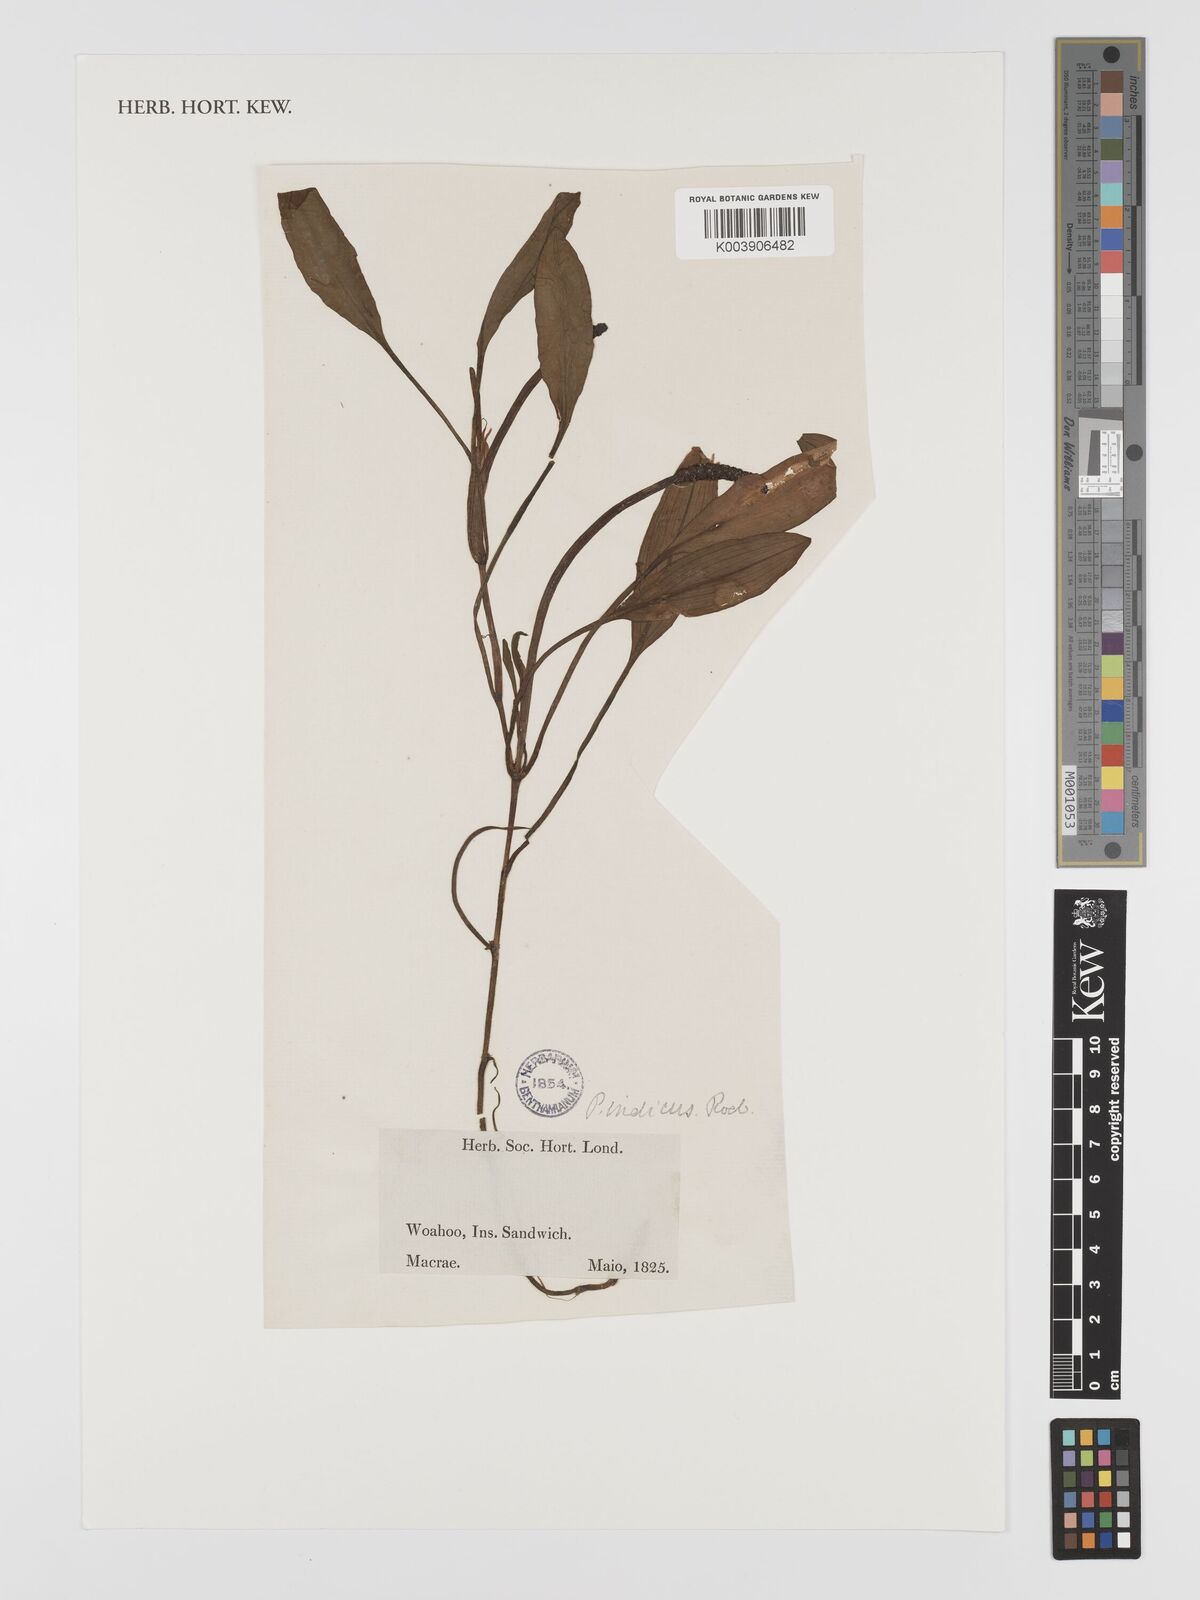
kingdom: Plantae
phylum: Tracheophyta
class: Liliopsida
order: Alismatales
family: Potamogetonaceae
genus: Potamogeton
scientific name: Potamogeton nodosus
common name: Loddon pondweed
